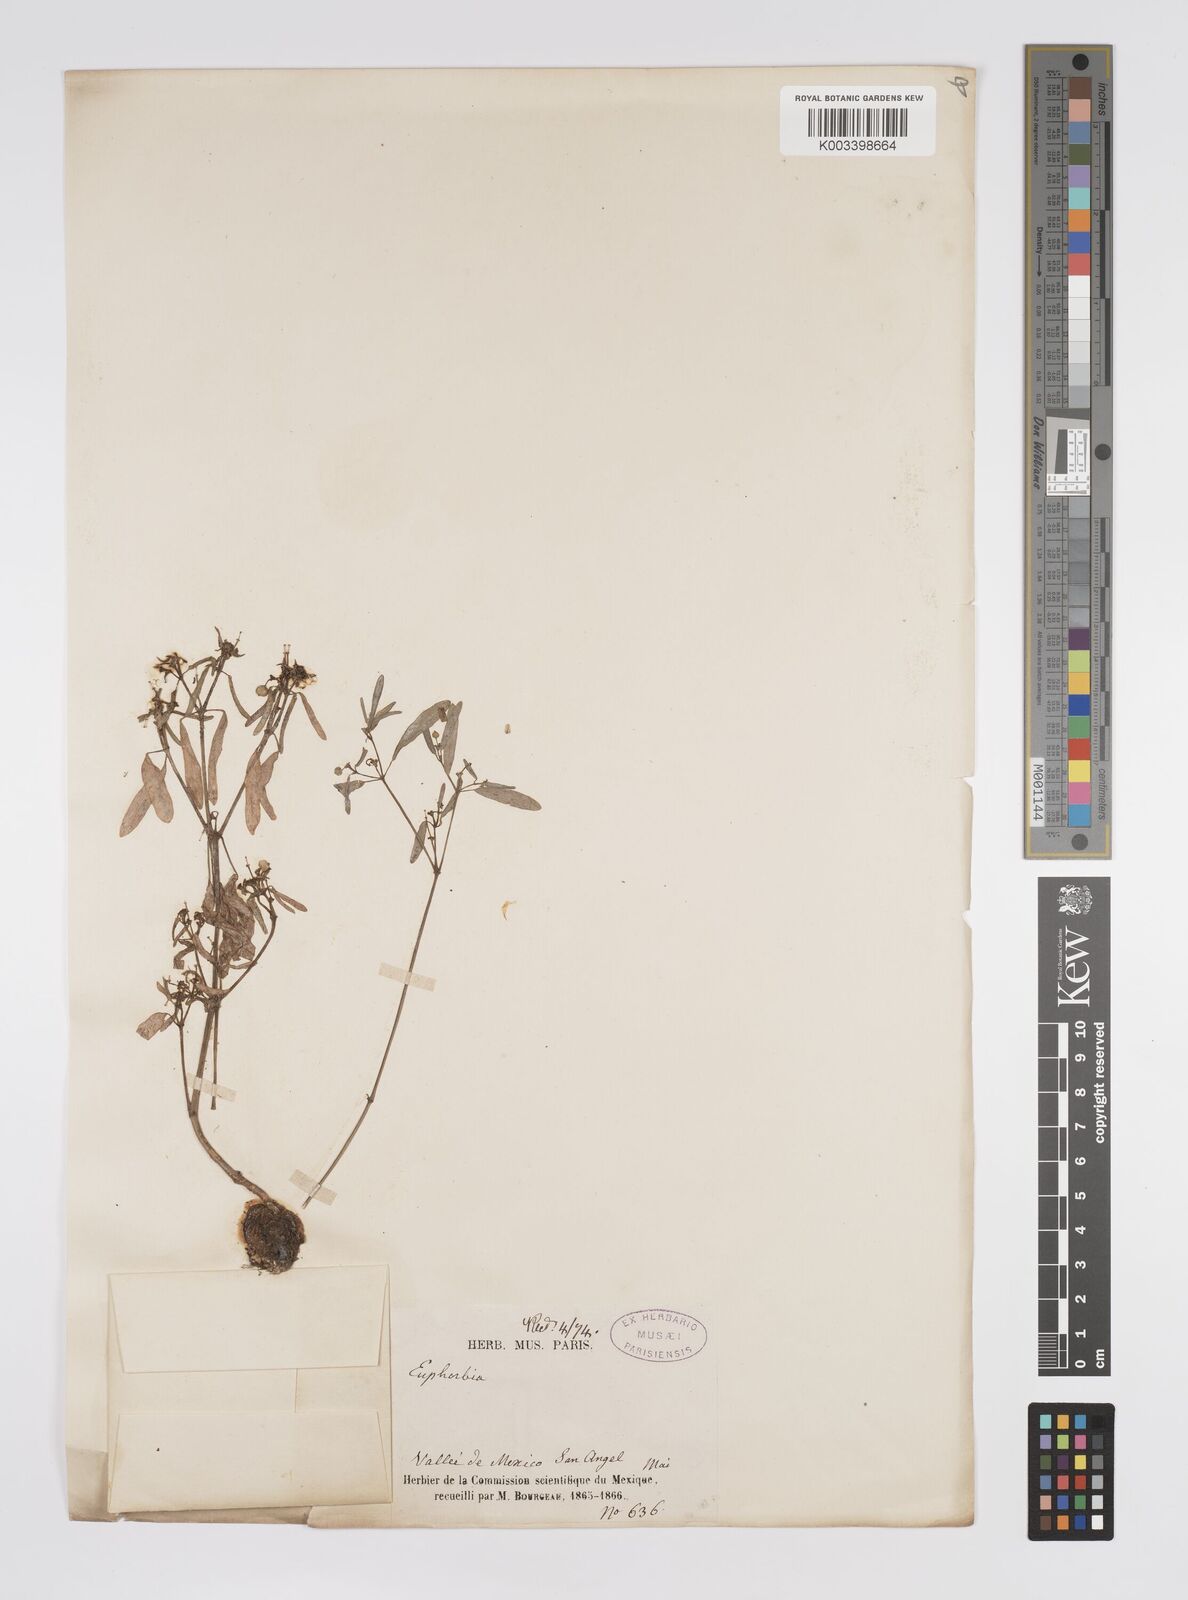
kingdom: Plantae
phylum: Tracheophyta
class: Magnoliopsida
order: Malpighiales
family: Euphorbiaceae
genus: Euphorbia
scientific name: Euphorbia
